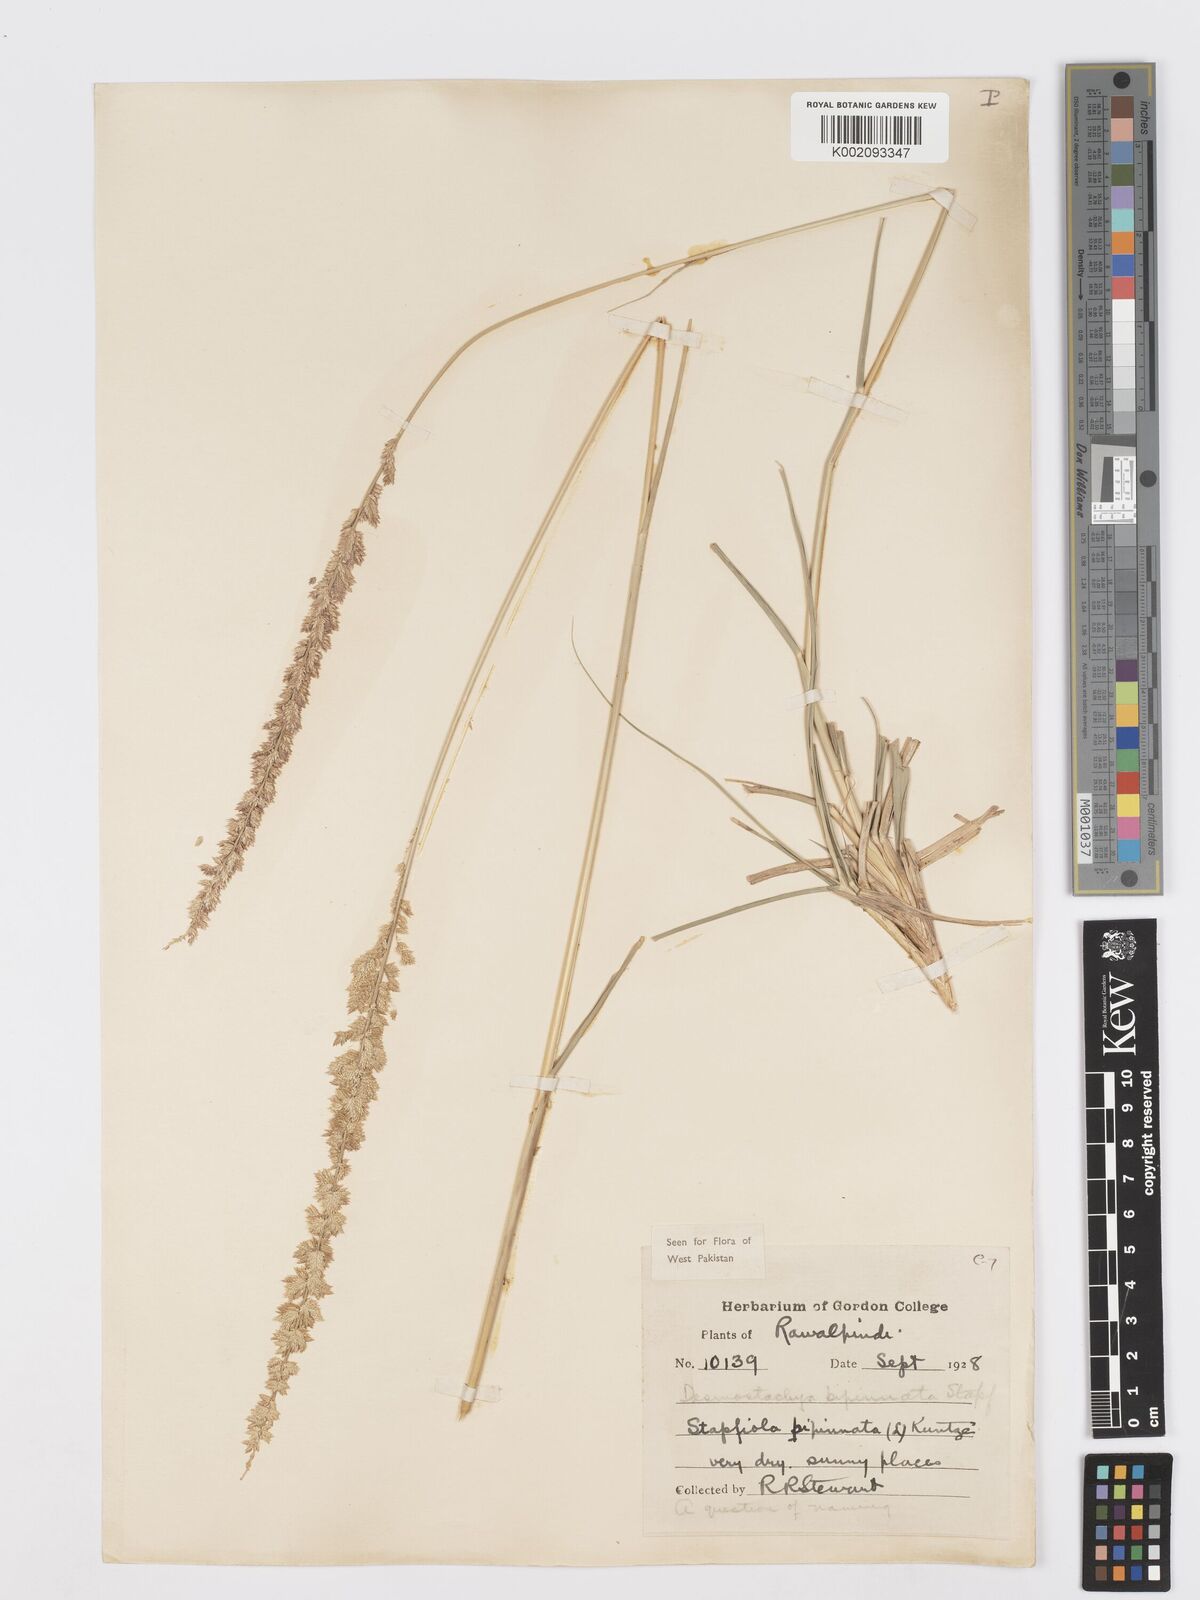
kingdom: Plantae
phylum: Tracheophyta
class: Liliopsida
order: Poales
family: Poaceae
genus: Desmostachya
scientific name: Desmostachya bipinnata
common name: Crowfoot grass
